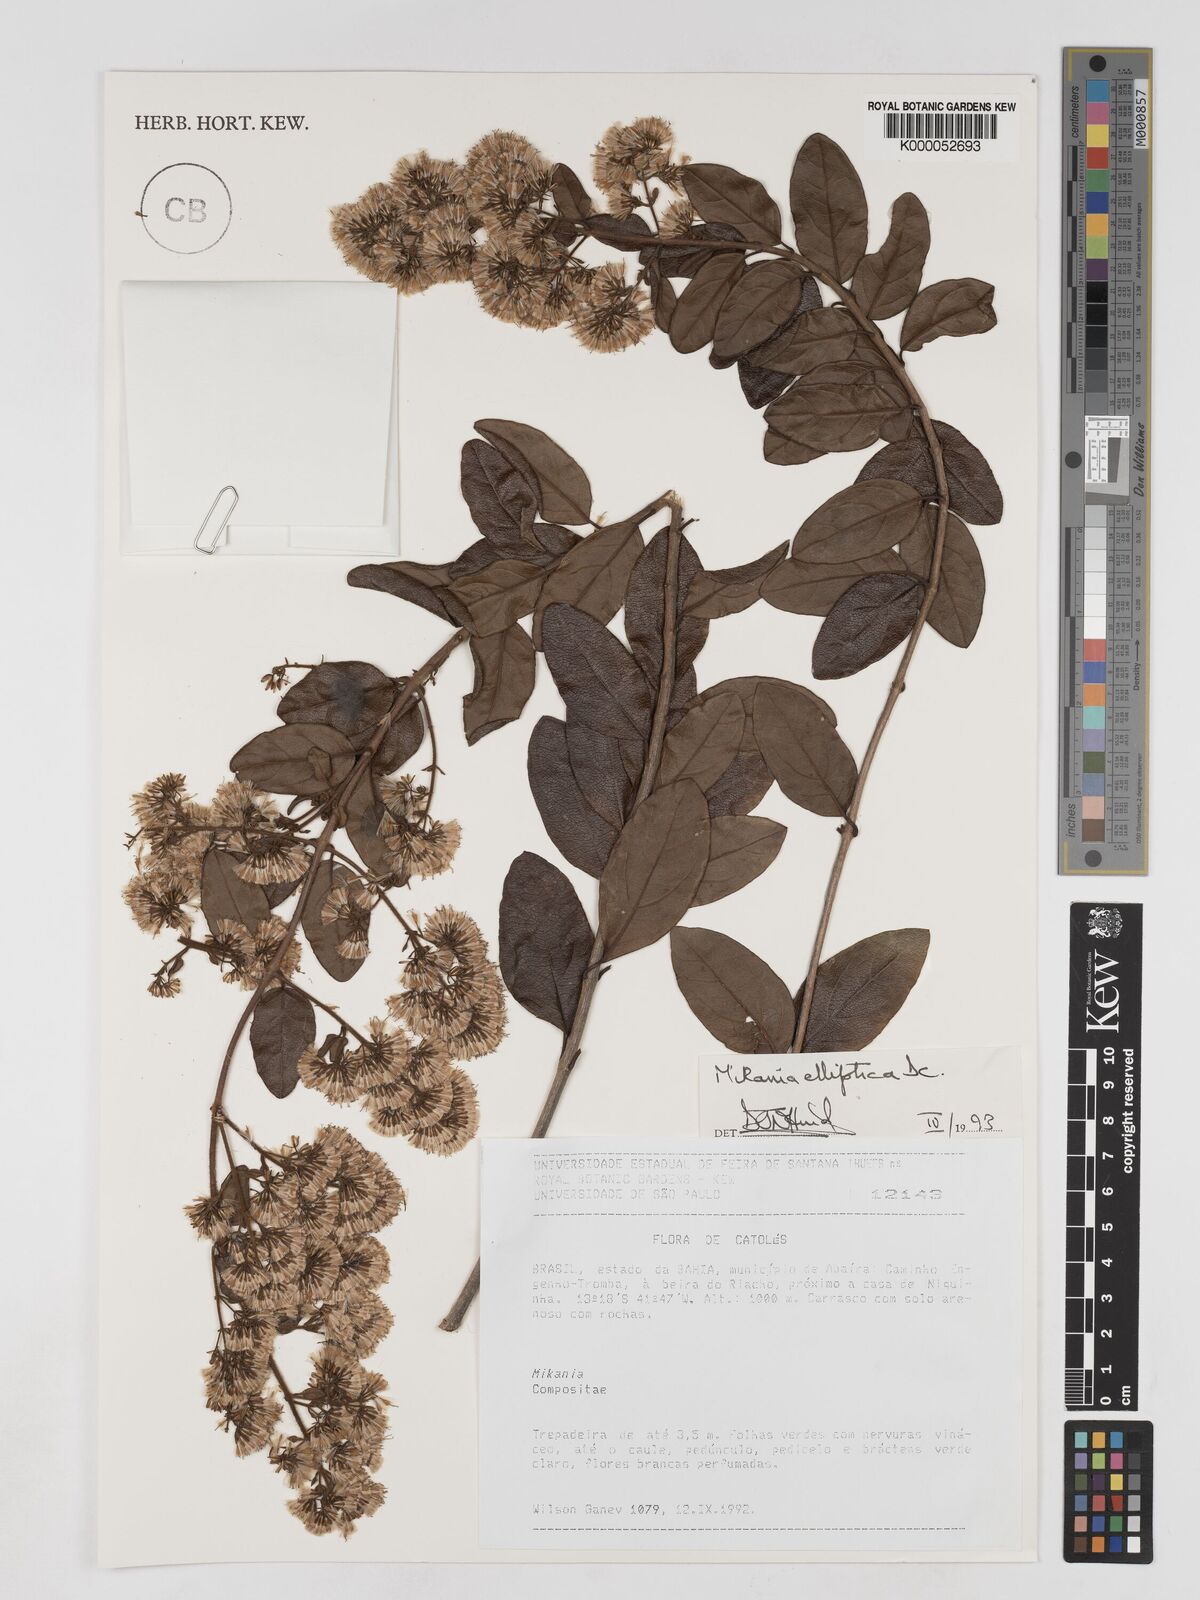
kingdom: Plantae
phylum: Tracheophyta
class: Magnoliopsida
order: Asterales
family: Asteraceae
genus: Mikania
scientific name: Mikania elliptica
